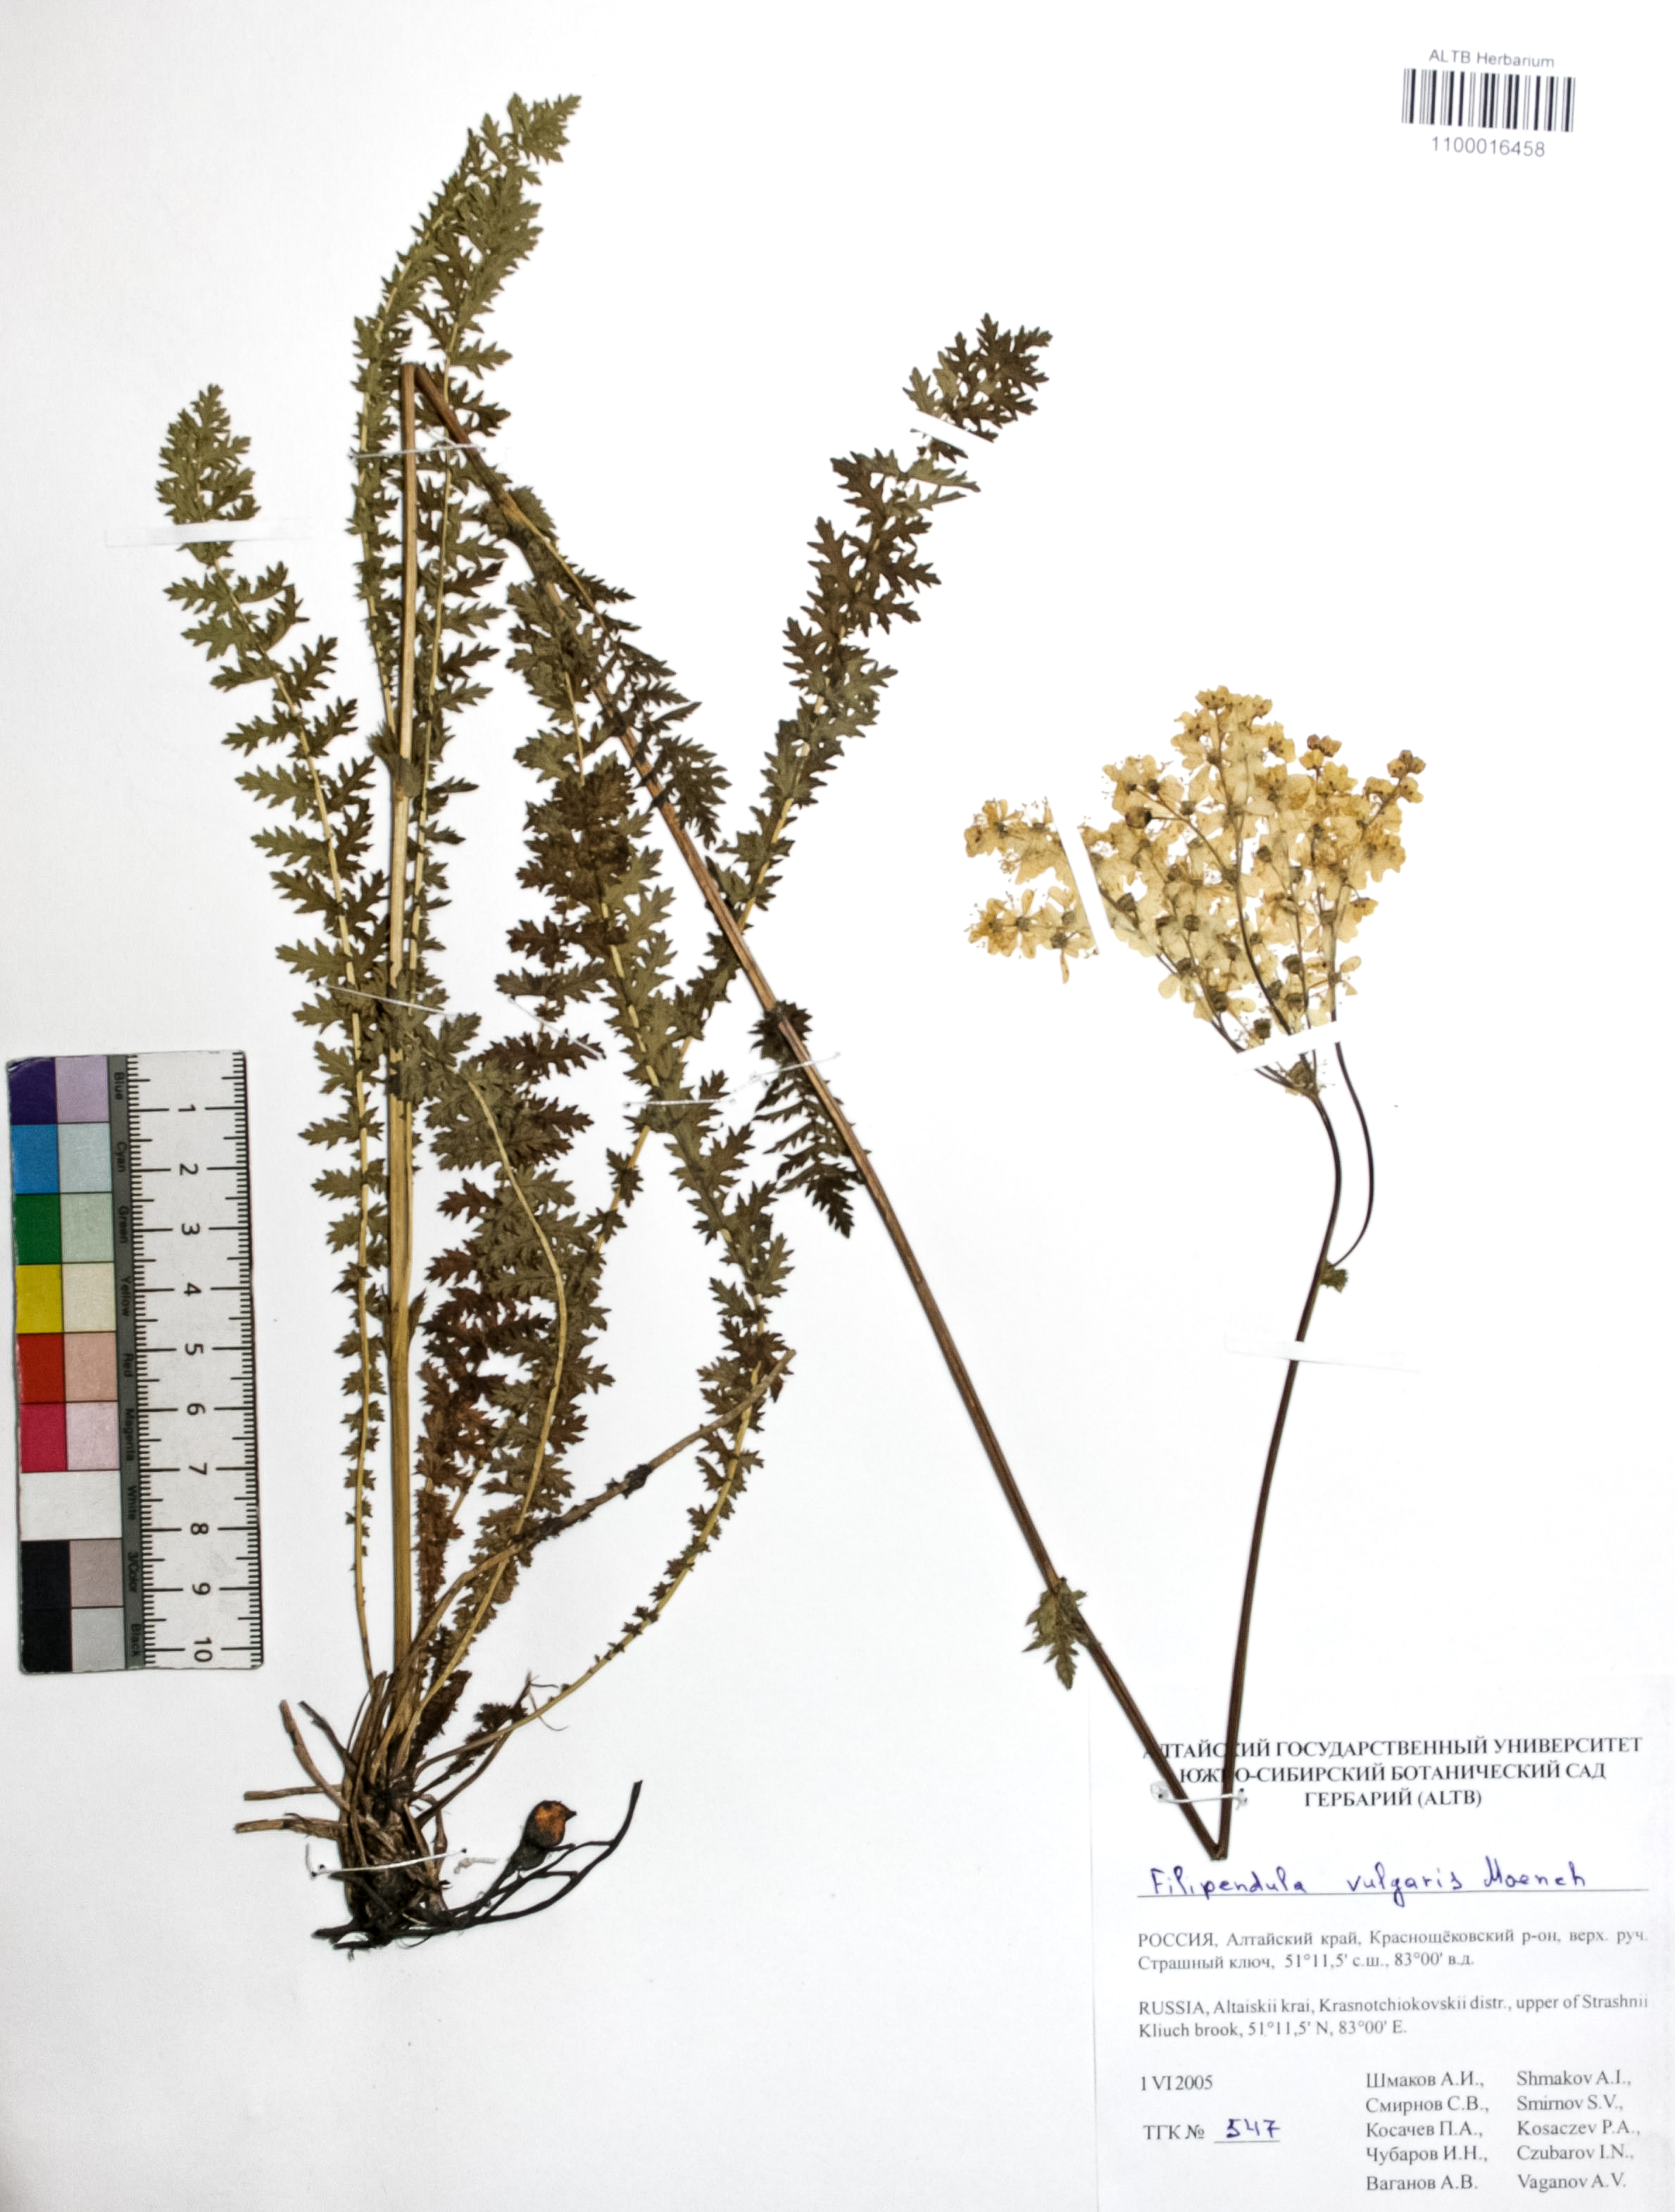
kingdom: Plantae
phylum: Tracheophyta
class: Magnoliopsida
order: Rosales
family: Rosaceae
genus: Filipendula
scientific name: Filipendula vulgaris
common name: Dropwort
